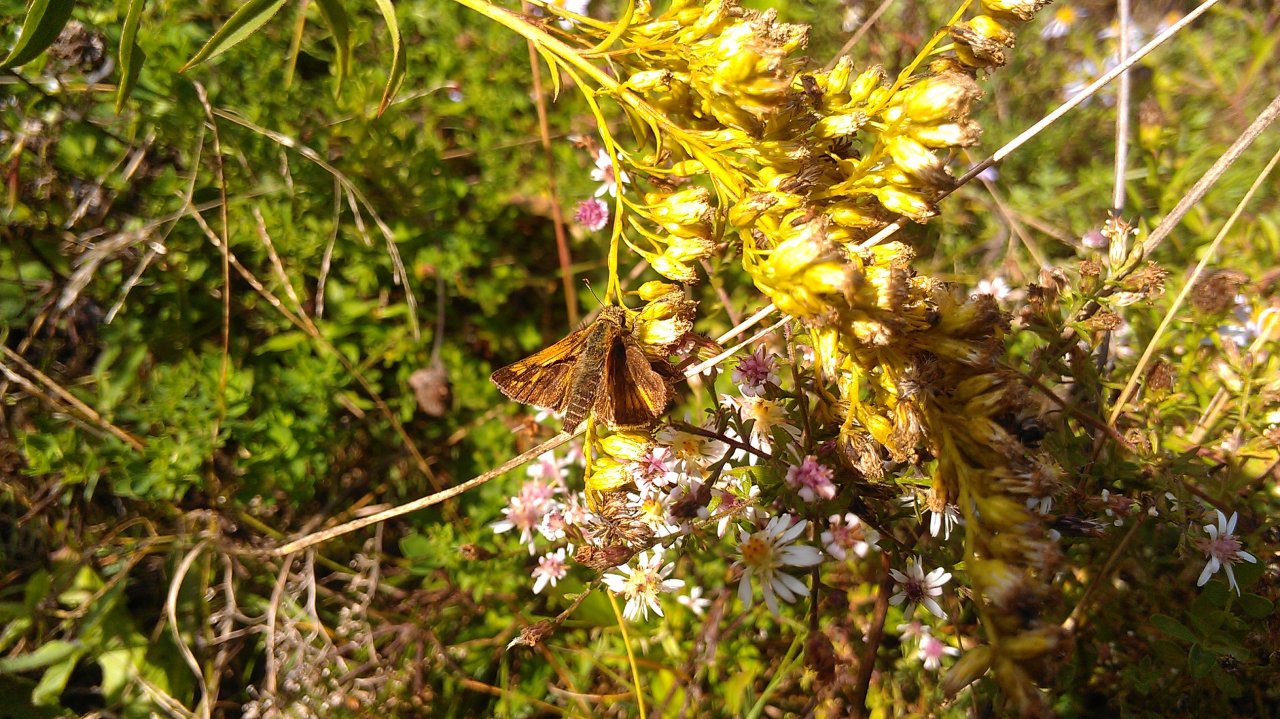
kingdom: Animalia
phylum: Arthropoda
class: Insecta
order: Lepidoptera
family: Hesperiidae
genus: Polites
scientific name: Polites coras
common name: Peck's Skipper
